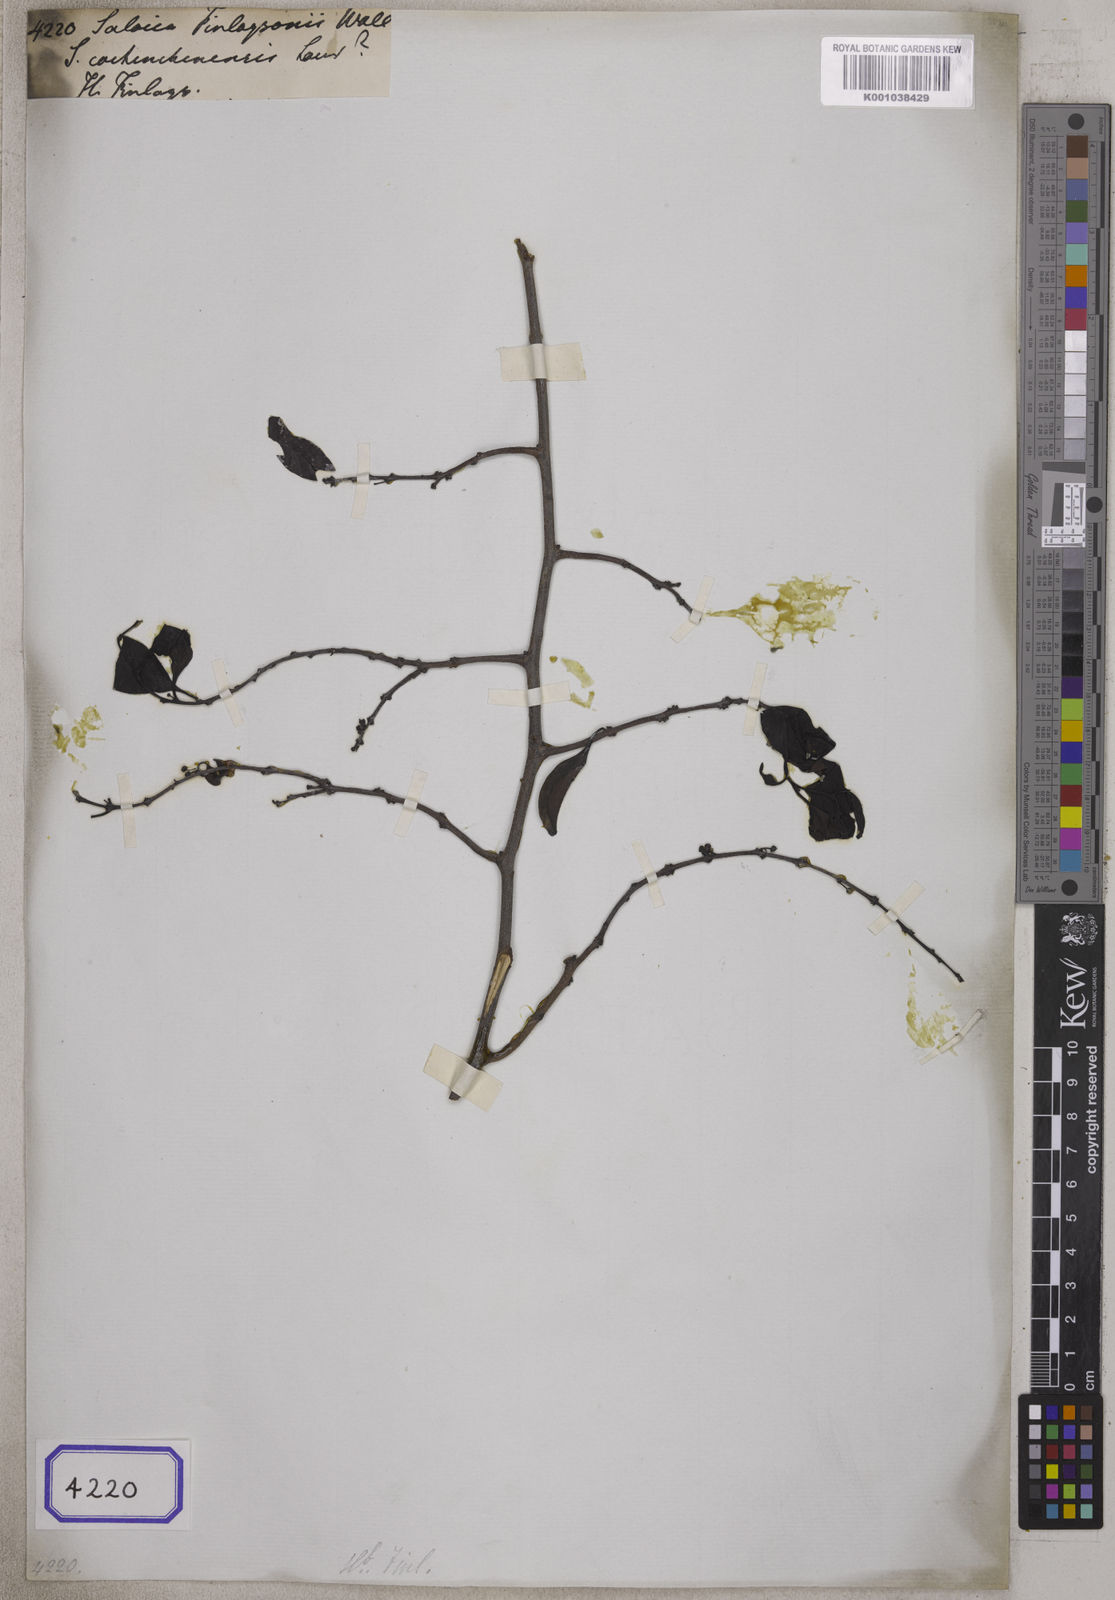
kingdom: Plantae
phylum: Tracheophyta
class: Magnoliopsida
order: Celastrales
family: Celastraceae
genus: Salacia
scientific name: Salacia cochinchinensis
